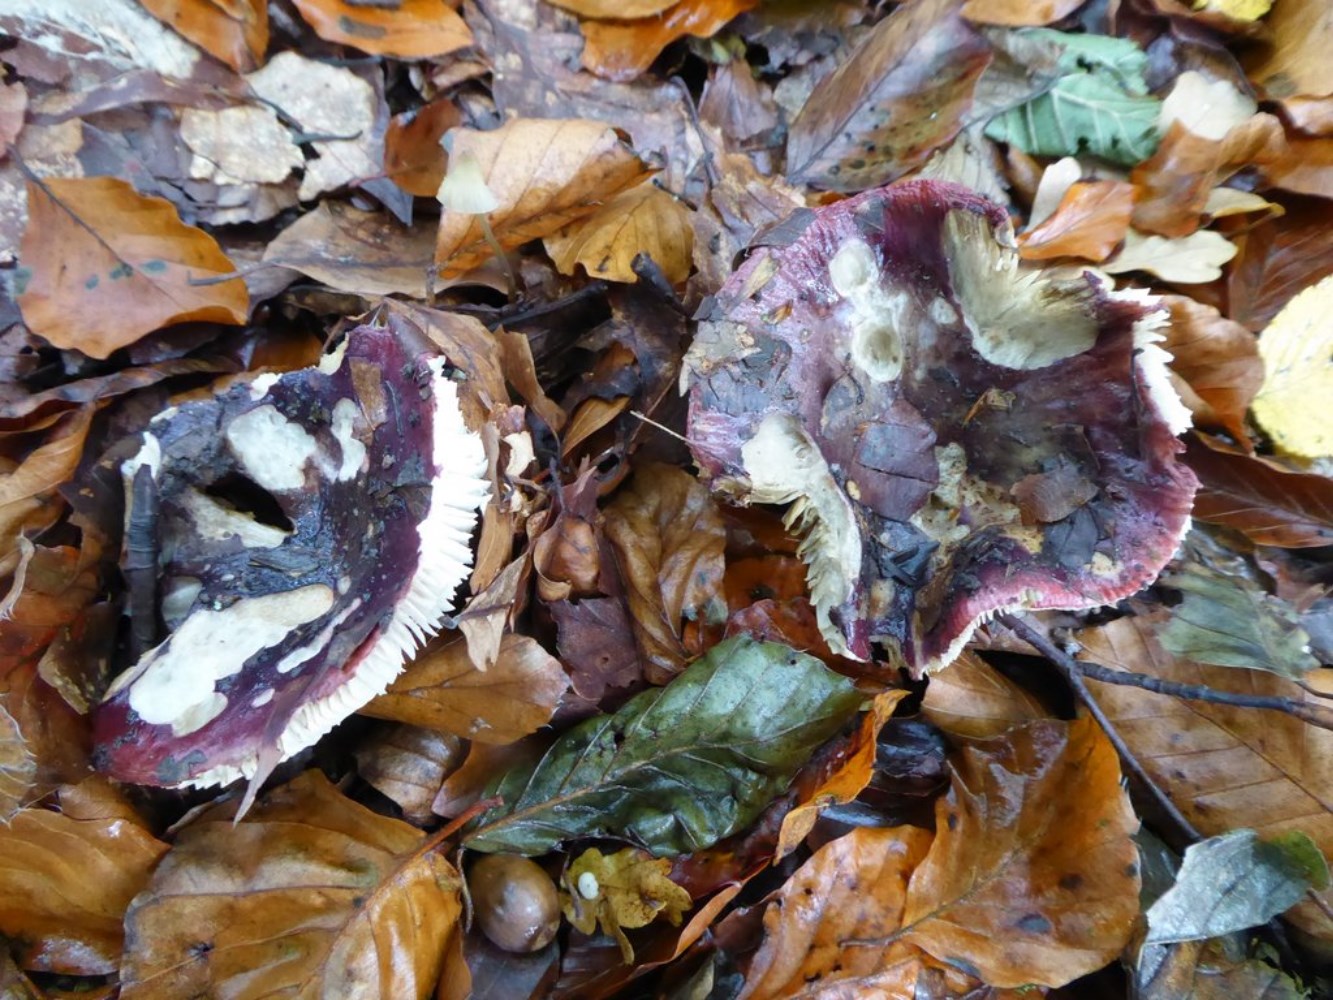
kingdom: Fungi
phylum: Basidiomycota
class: Agaricomycetes
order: Russulales
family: Russulaceae
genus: Russula
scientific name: Russula atropurpurea
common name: purpurbroget skørhat
